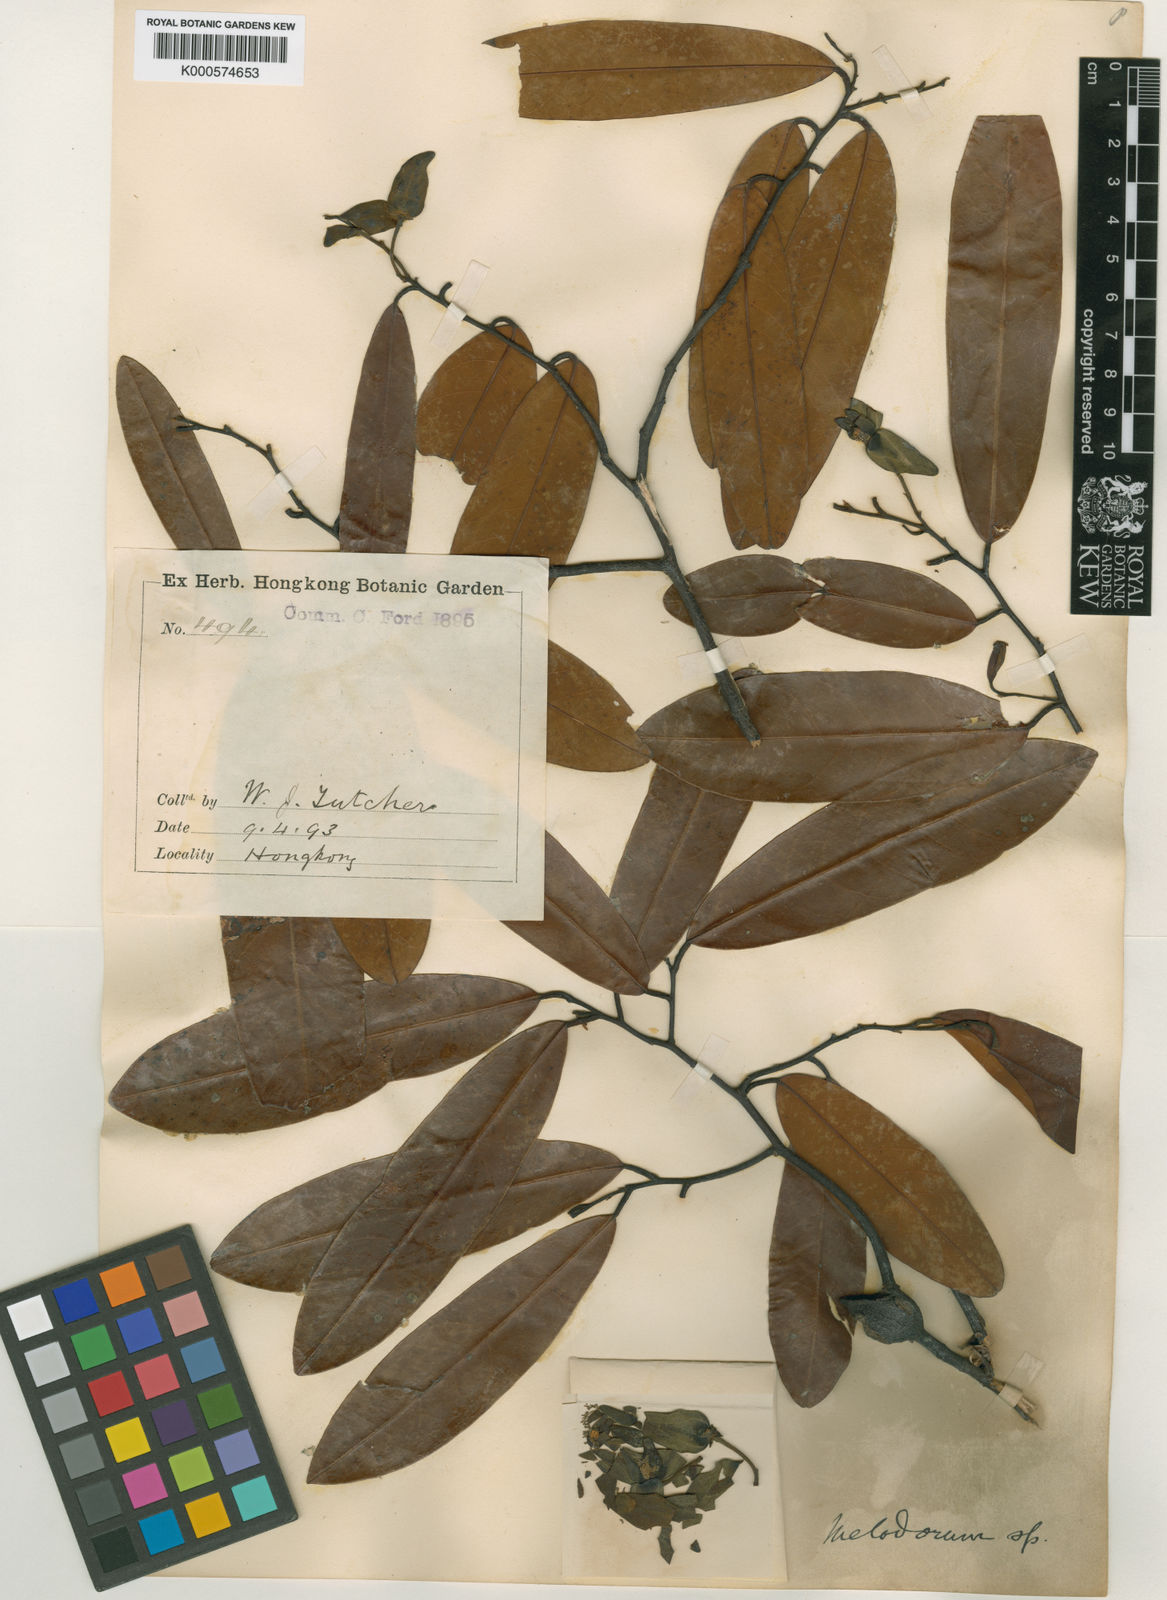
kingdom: Plantae
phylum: Tracheophyta
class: Magnoliopsida
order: Magnoliales
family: Annonaceae
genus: Fissistigma
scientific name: Fissistigma uonicum
